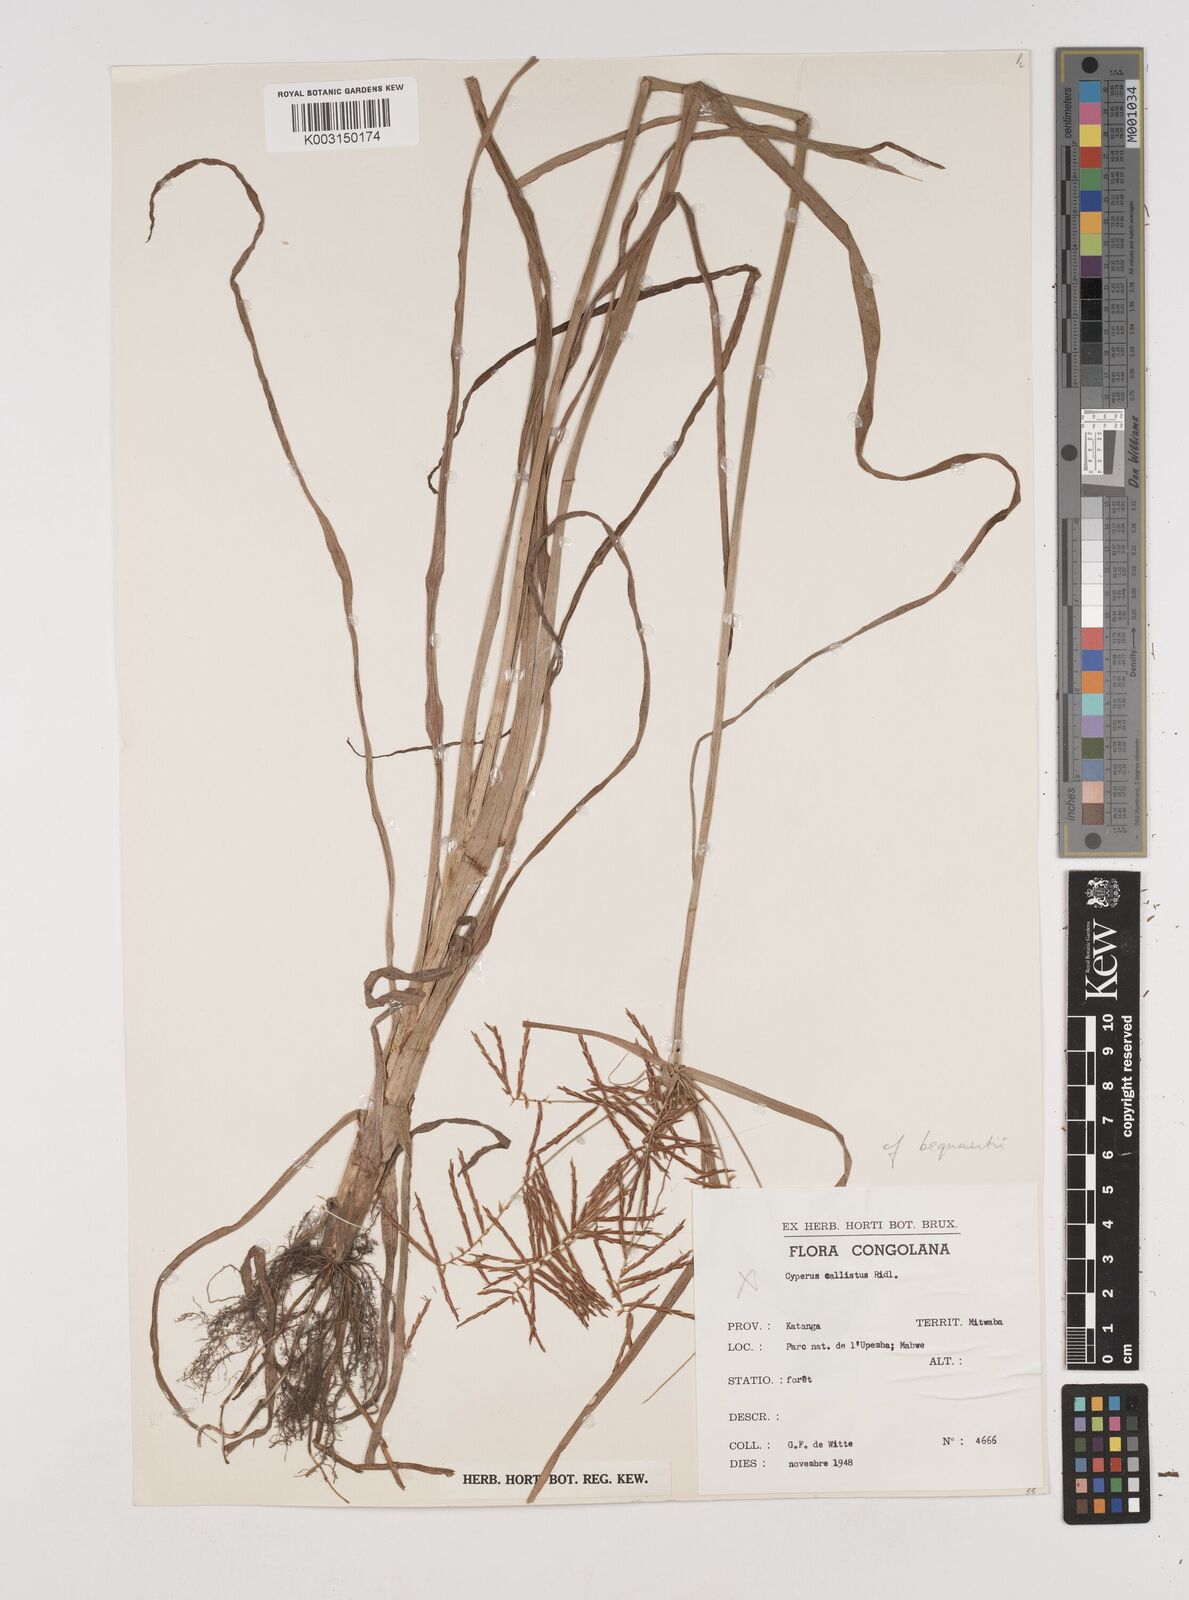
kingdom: Plantae
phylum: Tracheophyta
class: Liliopsida
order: Poales
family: Cyperaceae
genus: Cyperus
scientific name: Cyperus
